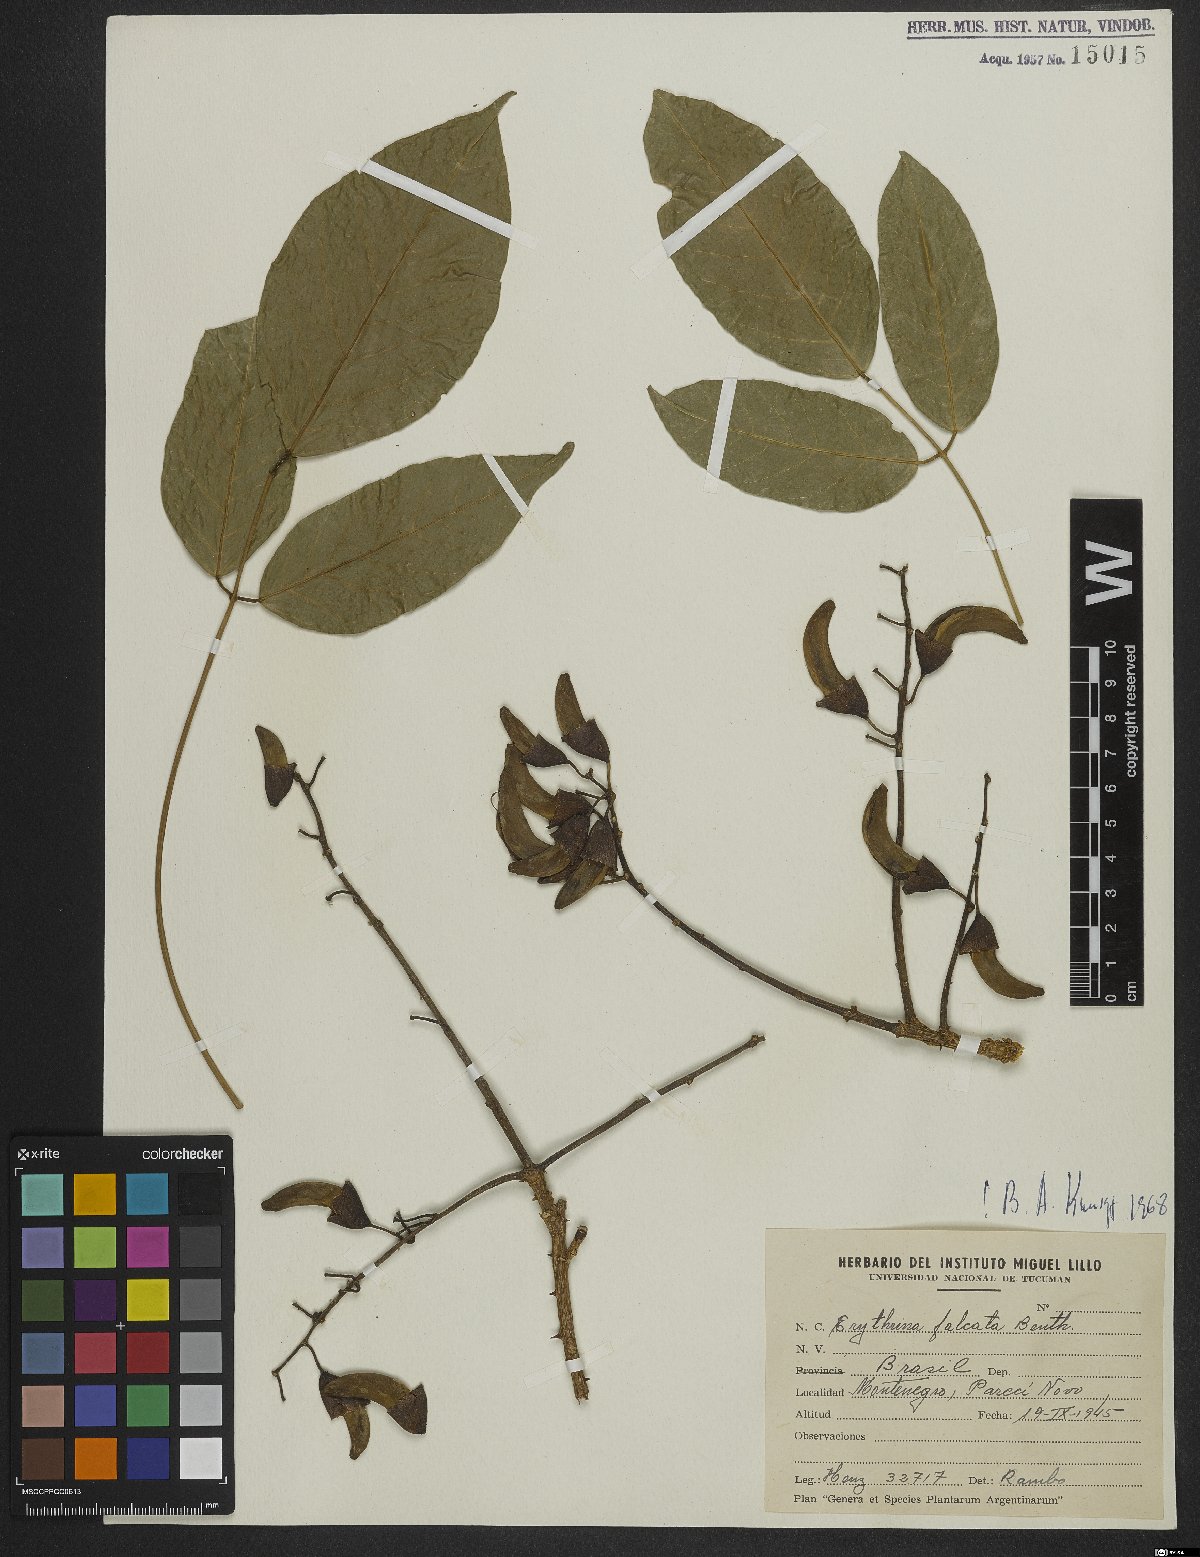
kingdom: Plantae
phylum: Tracheophyta
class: Magnoliopsida
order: Fabales
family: Fabaceae
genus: Erythrina
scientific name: Erythrina falcata
